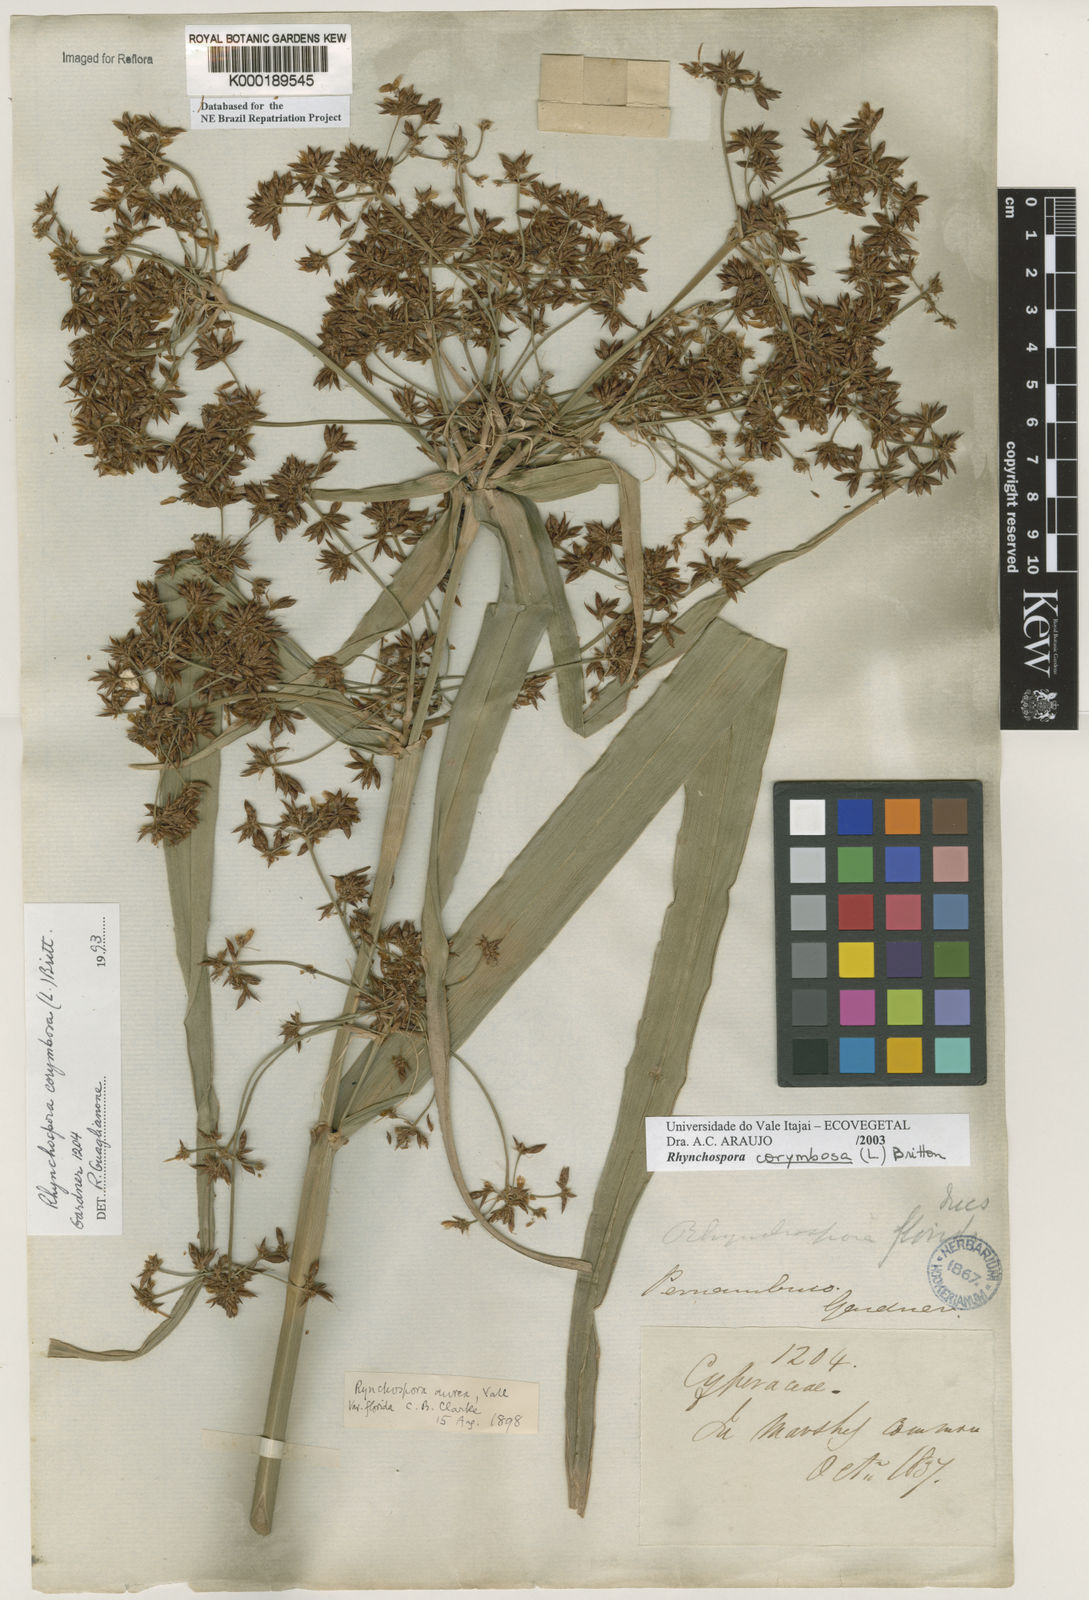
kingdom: Plantae
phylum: Tracheophyta
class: Liliopsida
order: Poales
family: Cyperaceae
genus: Rhynchospora
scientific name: Rhynchospora corymbosa
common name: Golden beak sedge
